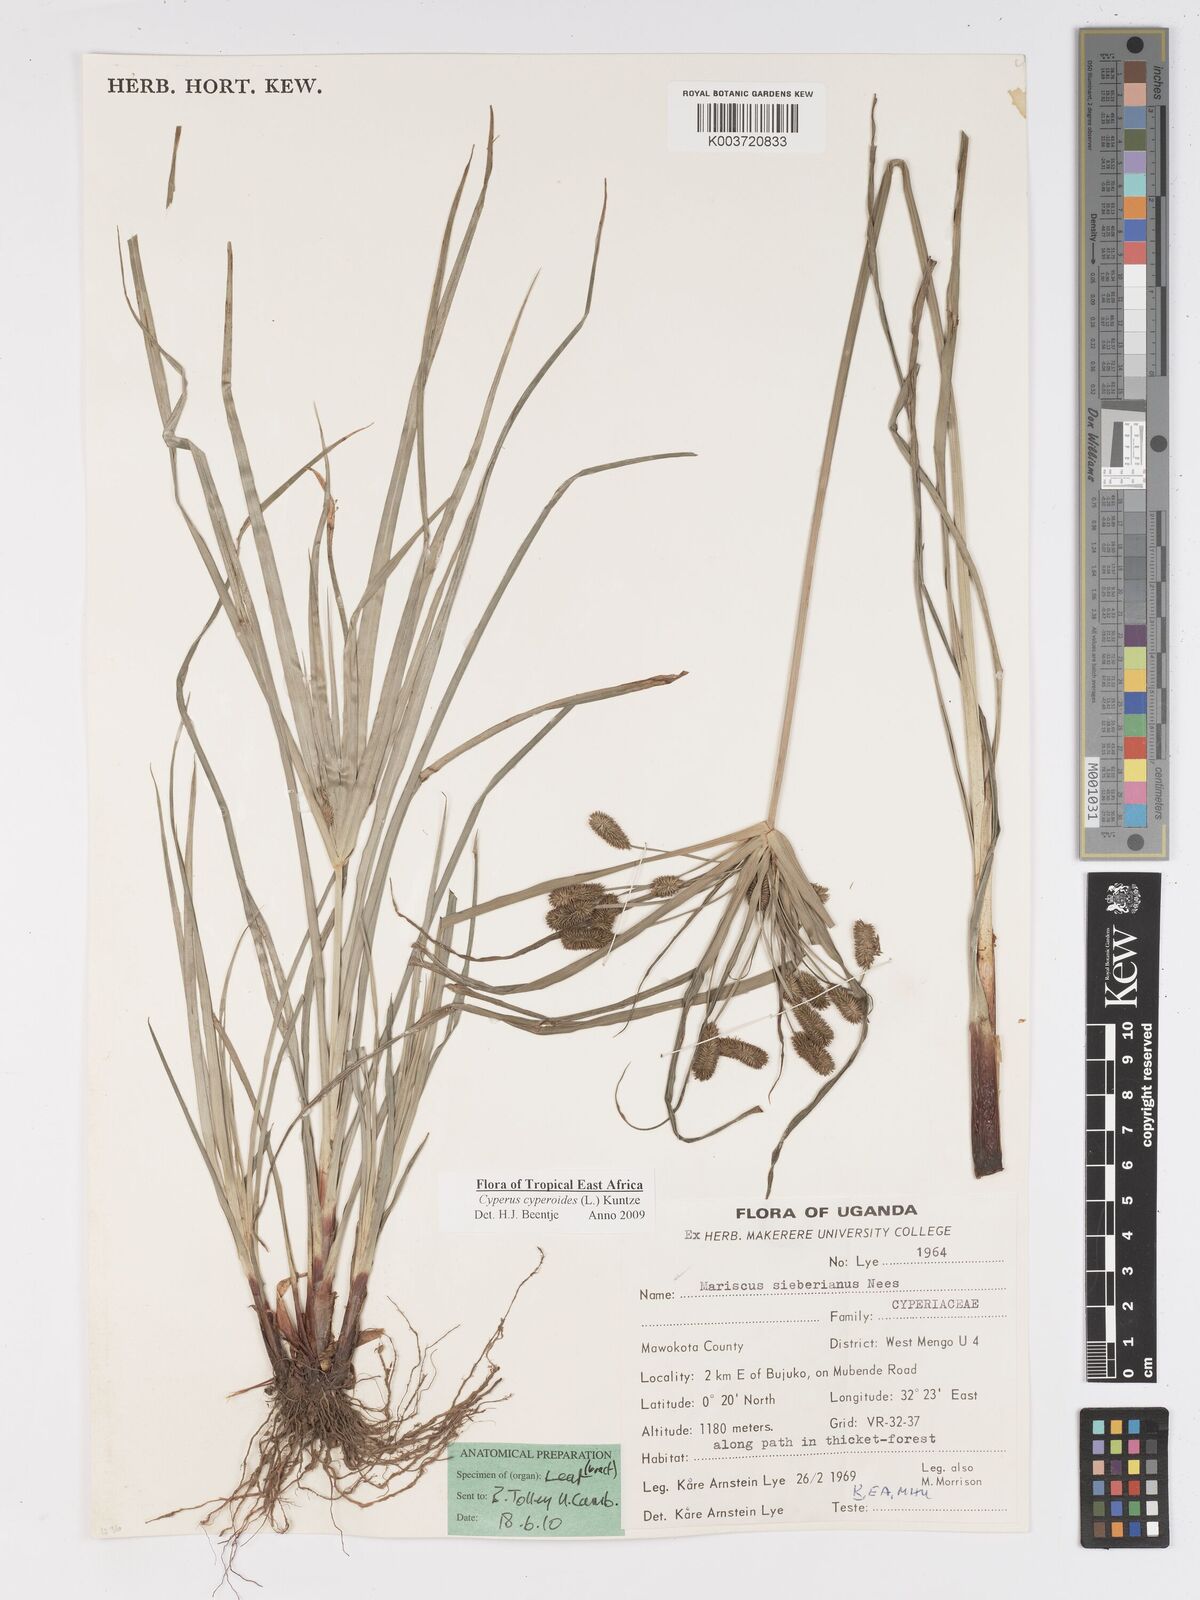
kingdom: Plantae
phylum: Tracheophyta
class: Liliopsida
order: Poales
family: Cyperaceae
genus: Cyperus
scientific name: Cyperus cyperoides
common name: Pacific island flat sedge
